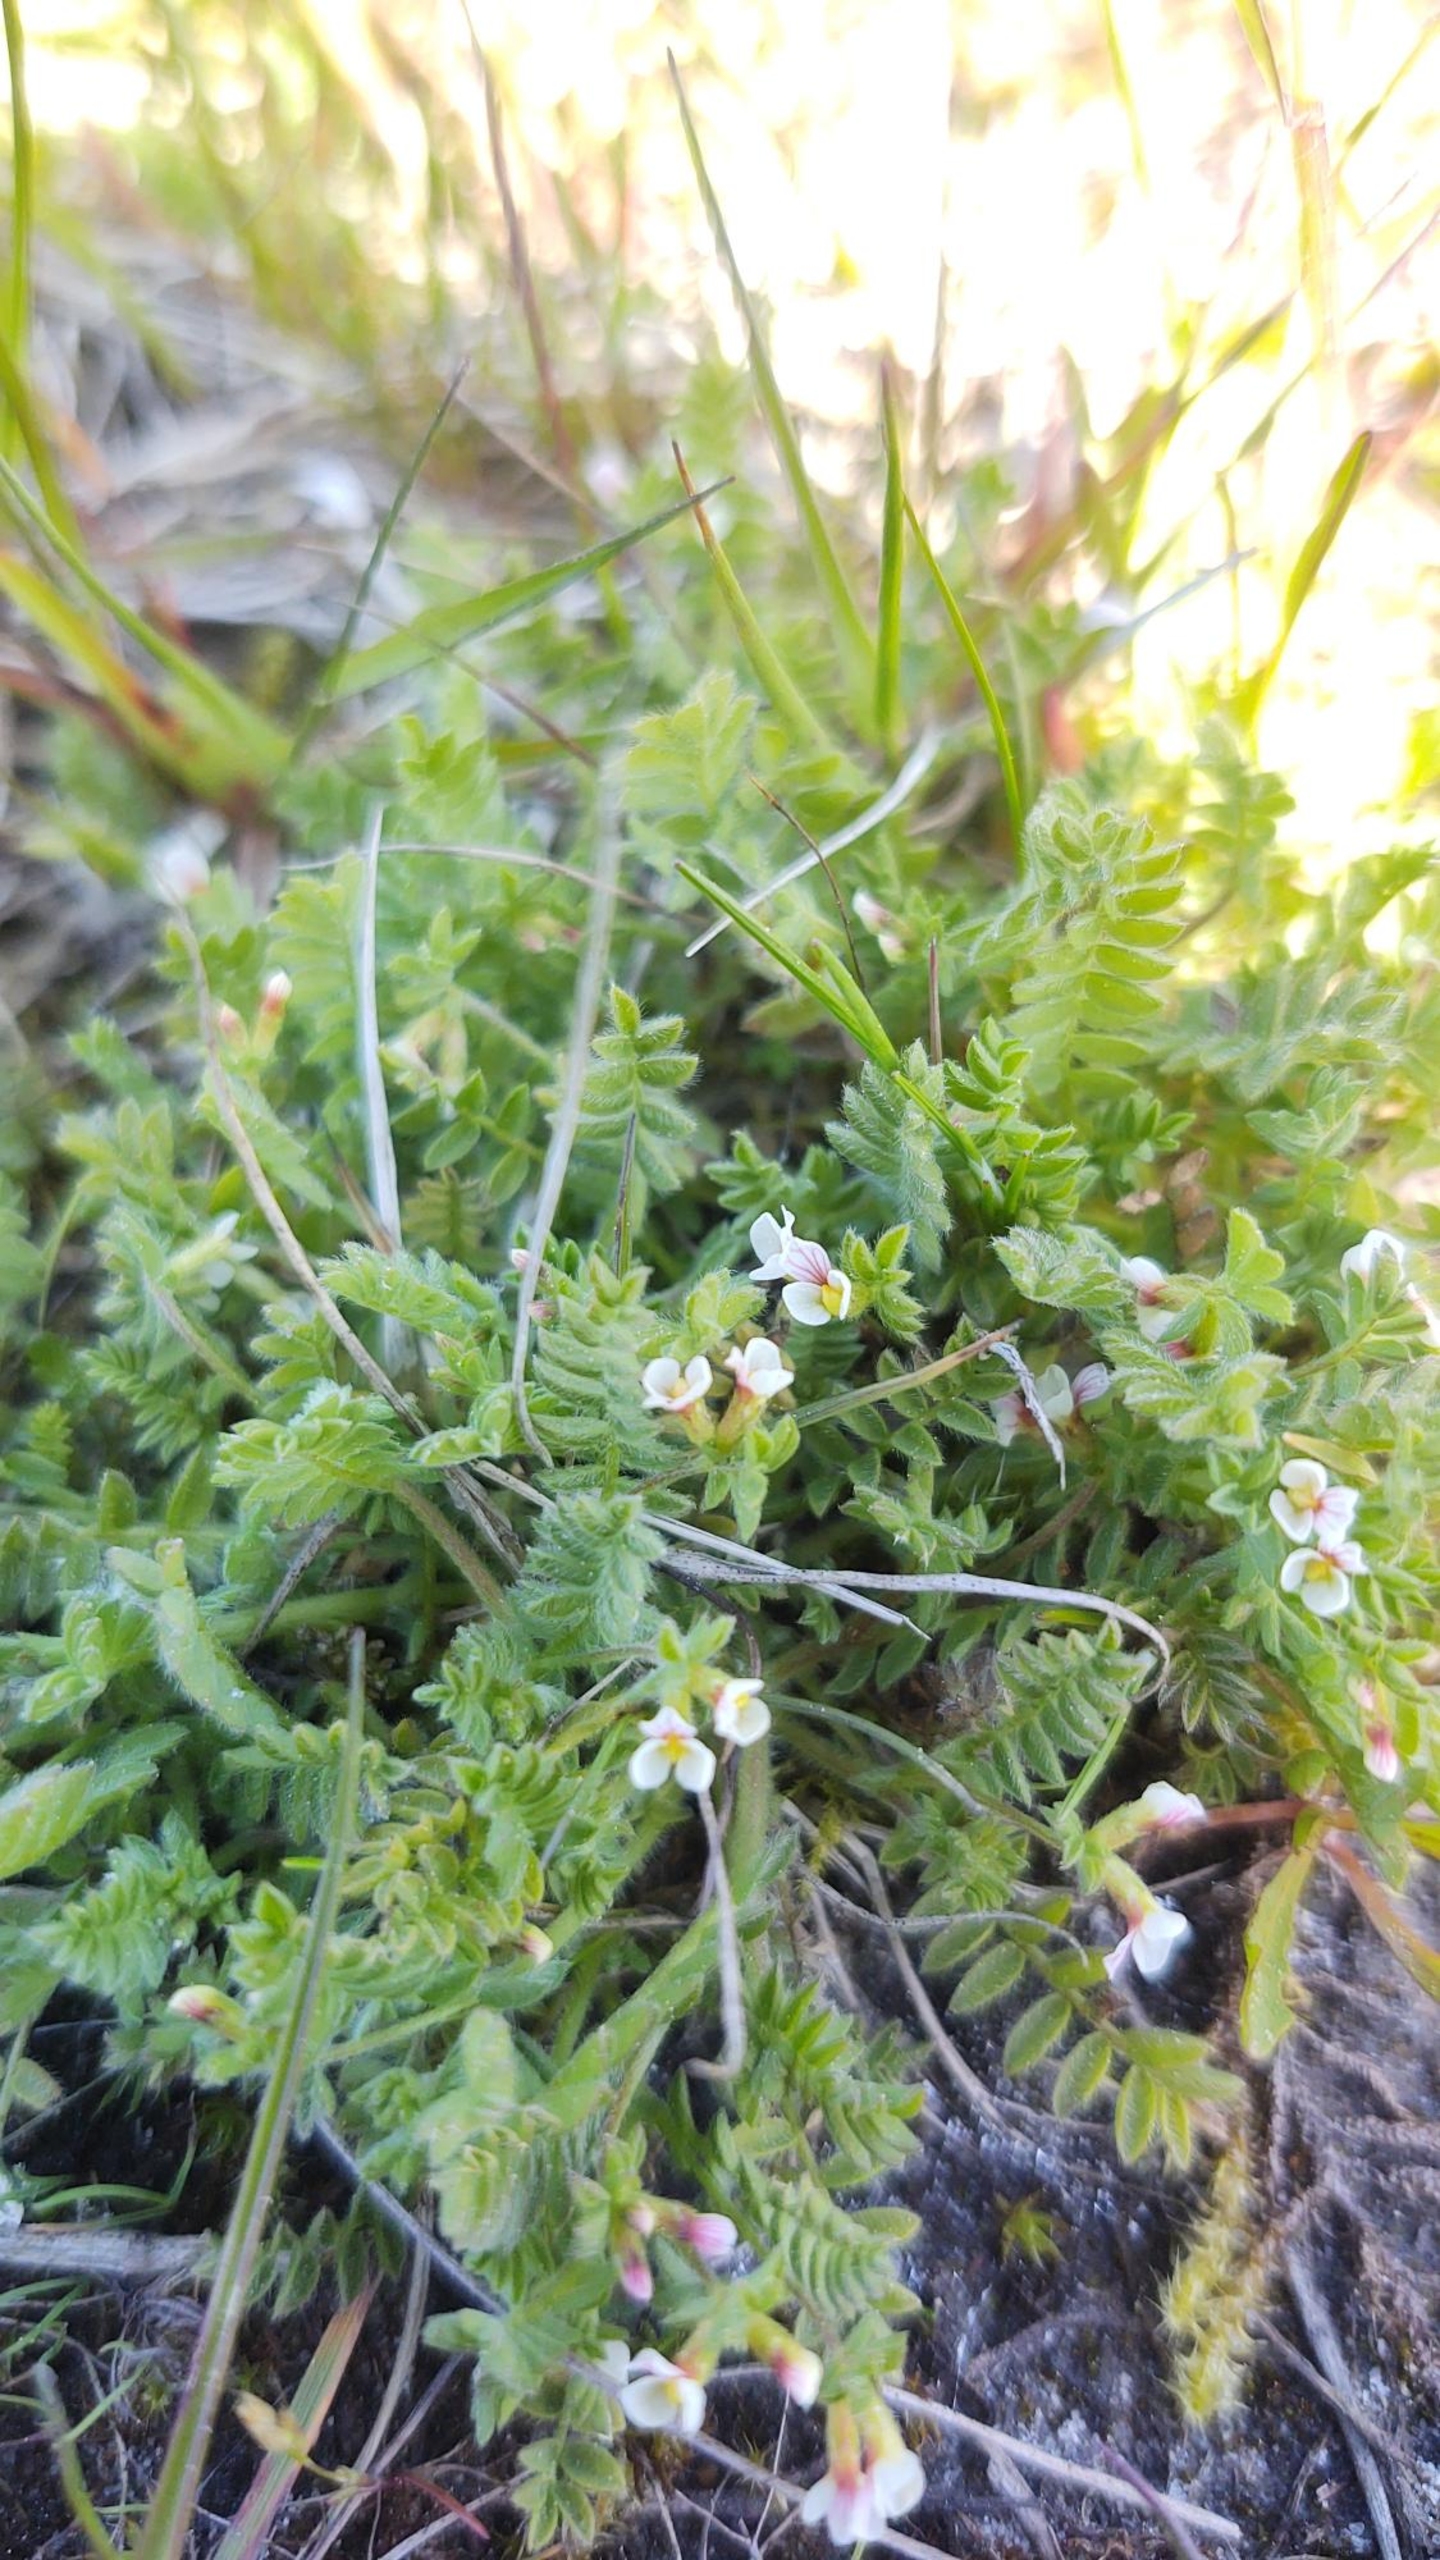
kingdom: Plantae
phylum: Tracheophyta
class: Magnoliopsida
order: Fabales
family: Fabaceae
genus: Ornithopus
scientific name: Ornithopus perpusillus
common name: Liden fugleklo
